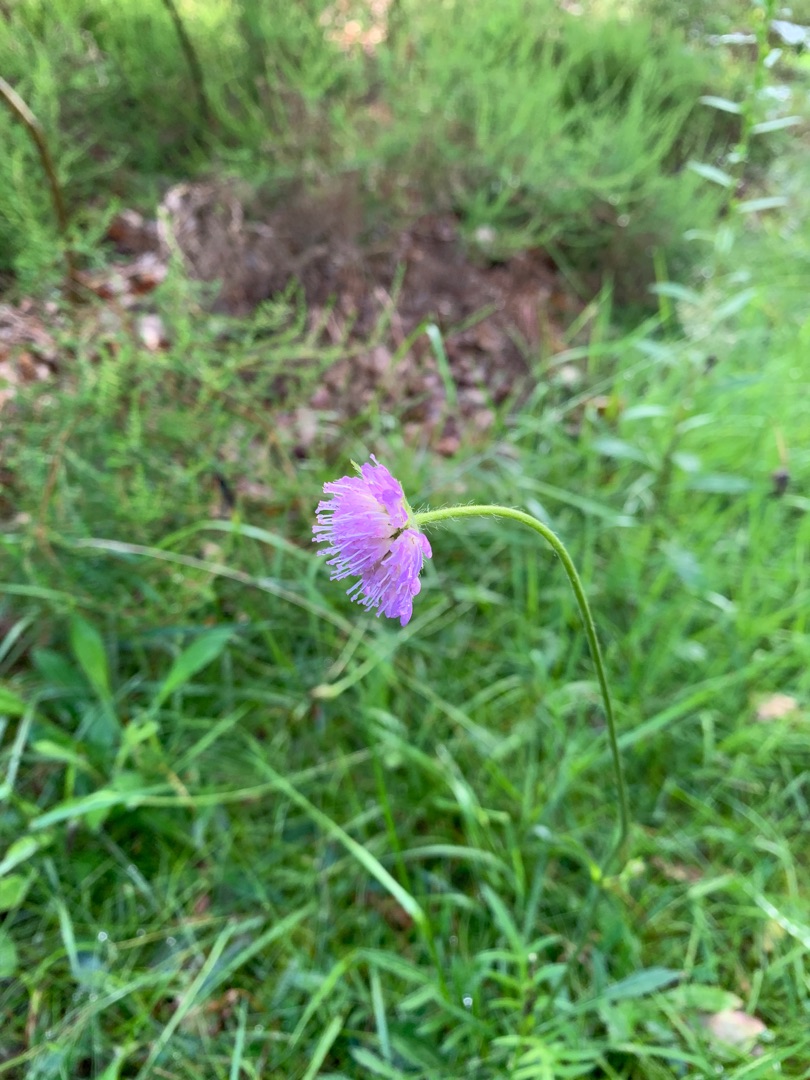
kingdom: Plantae
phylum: Tracheophyta
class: Magnoliopsida
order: Dipsacales
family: Caprifoliaceae
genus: Knautia
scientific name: Knautia arvensis
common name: Blåhat
